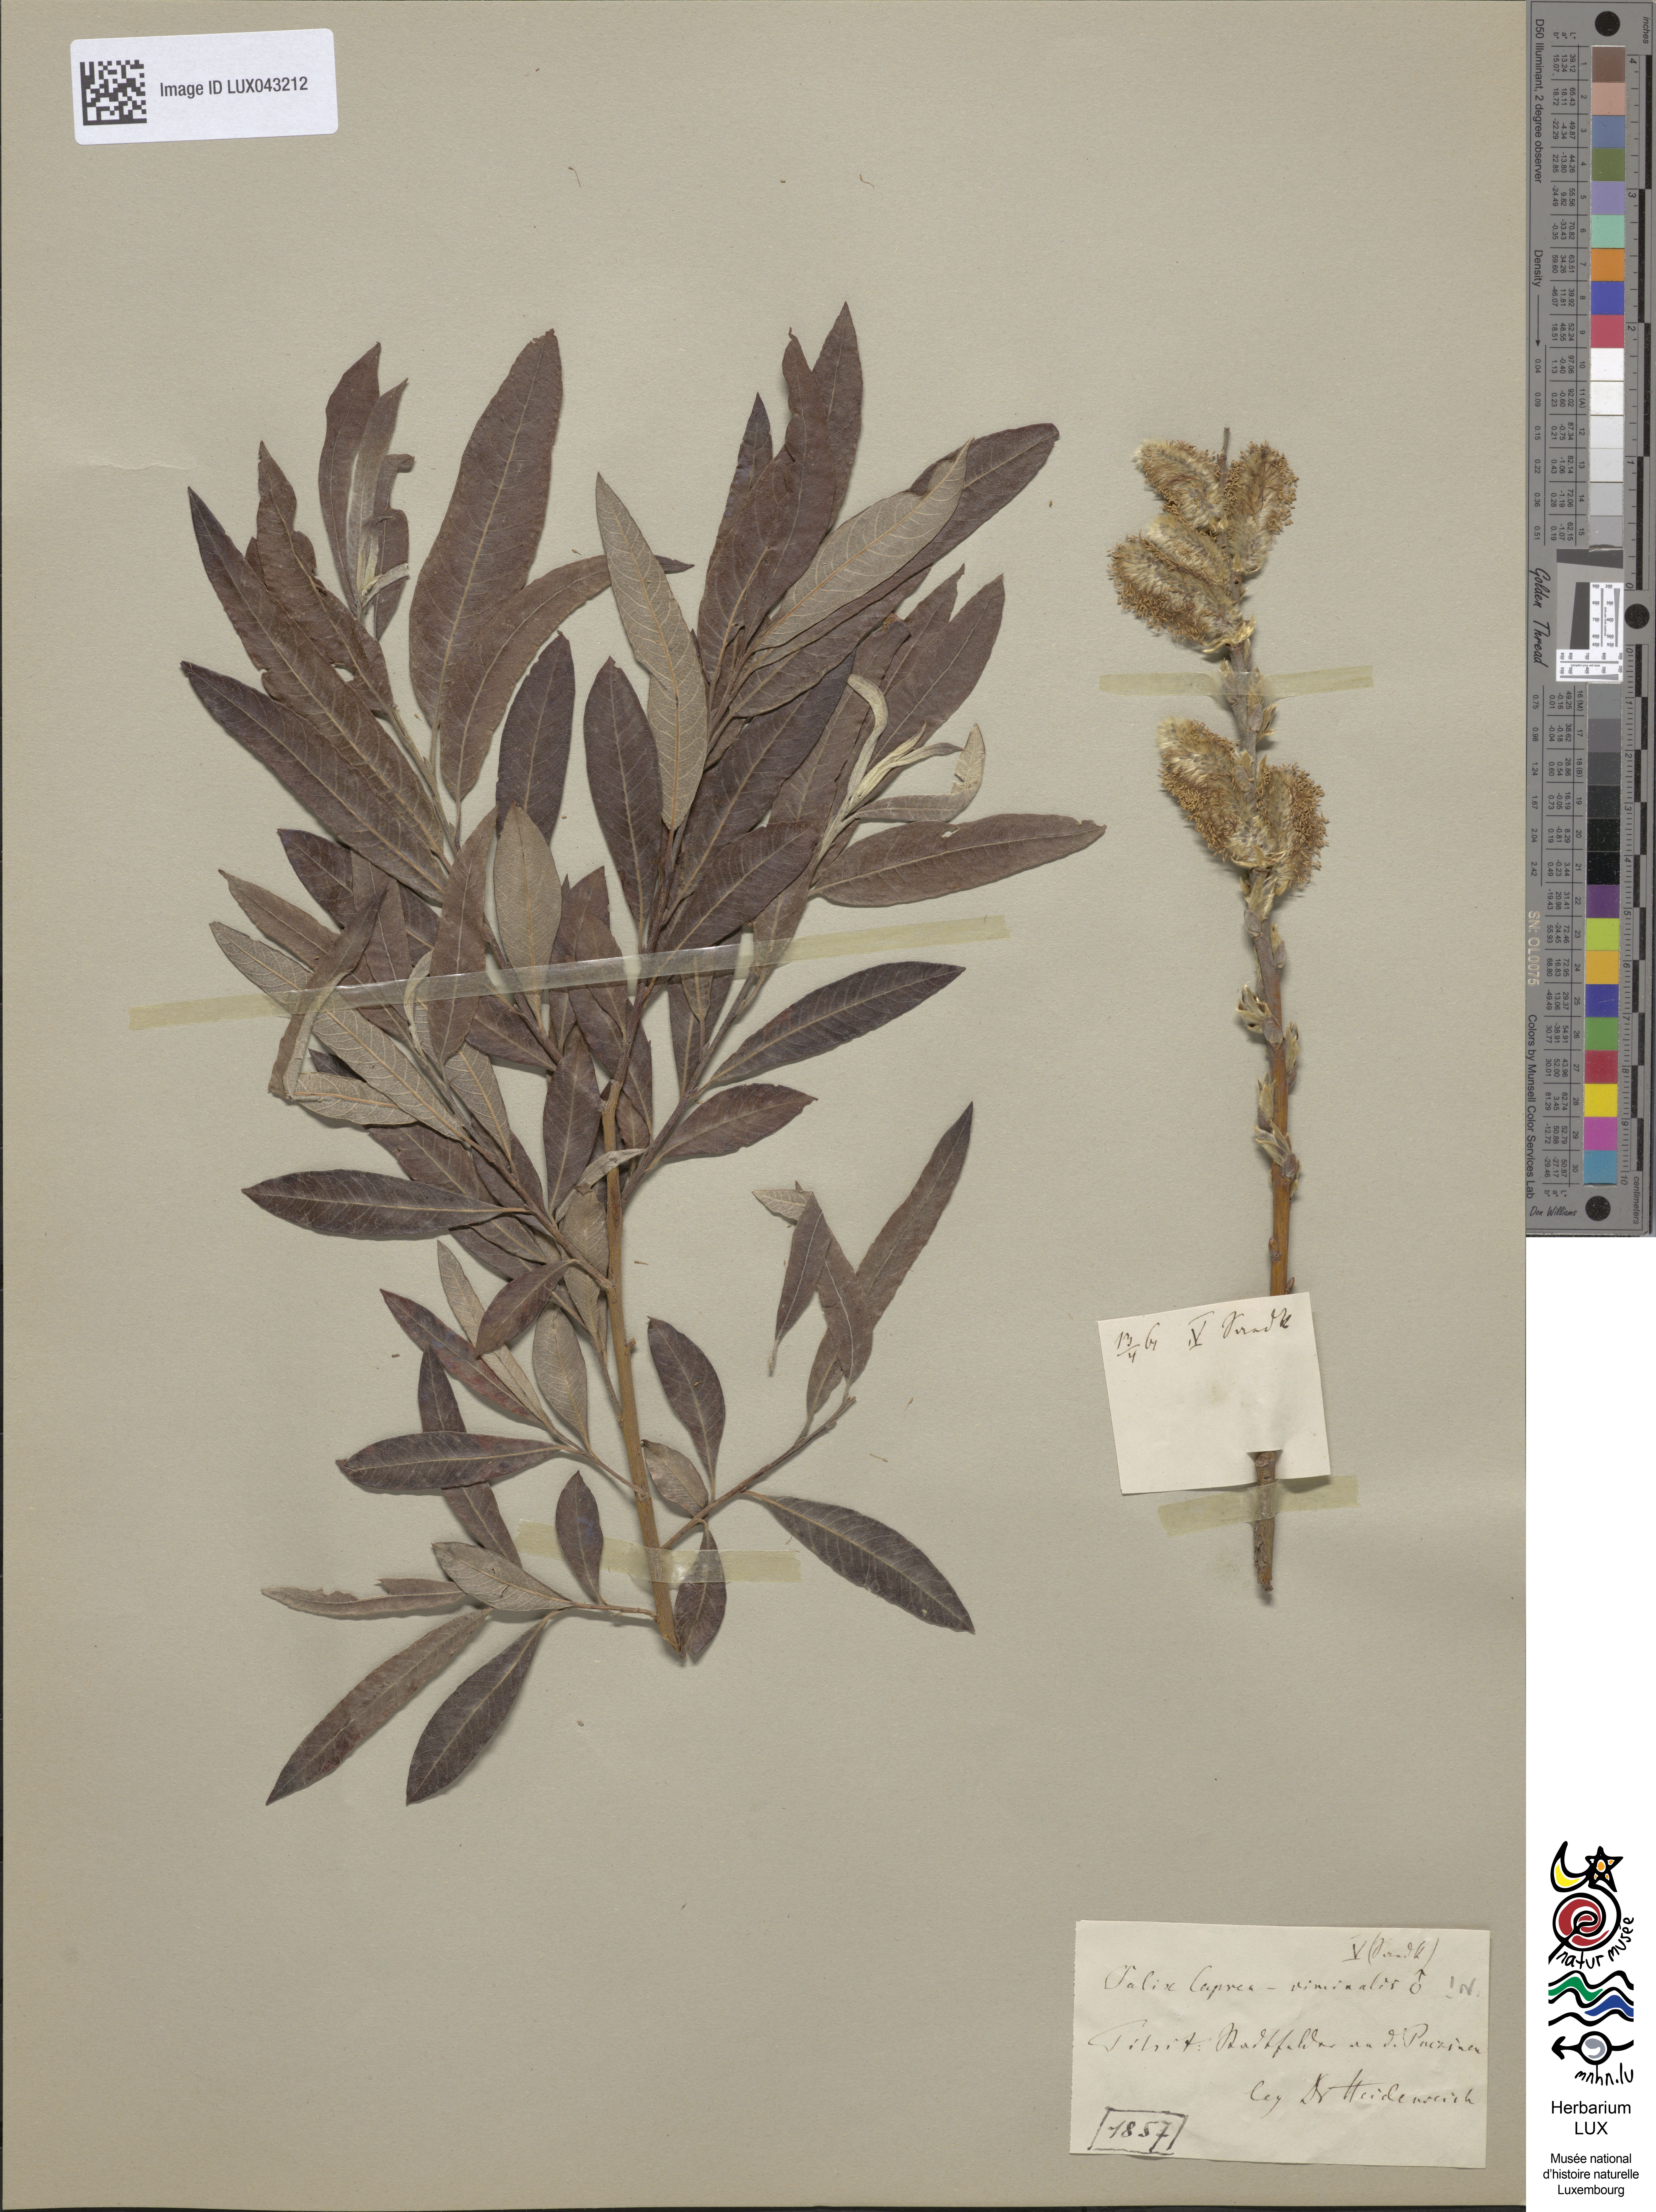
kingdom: Plantae
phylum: Tracheophyta
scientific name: Tracheophyta
